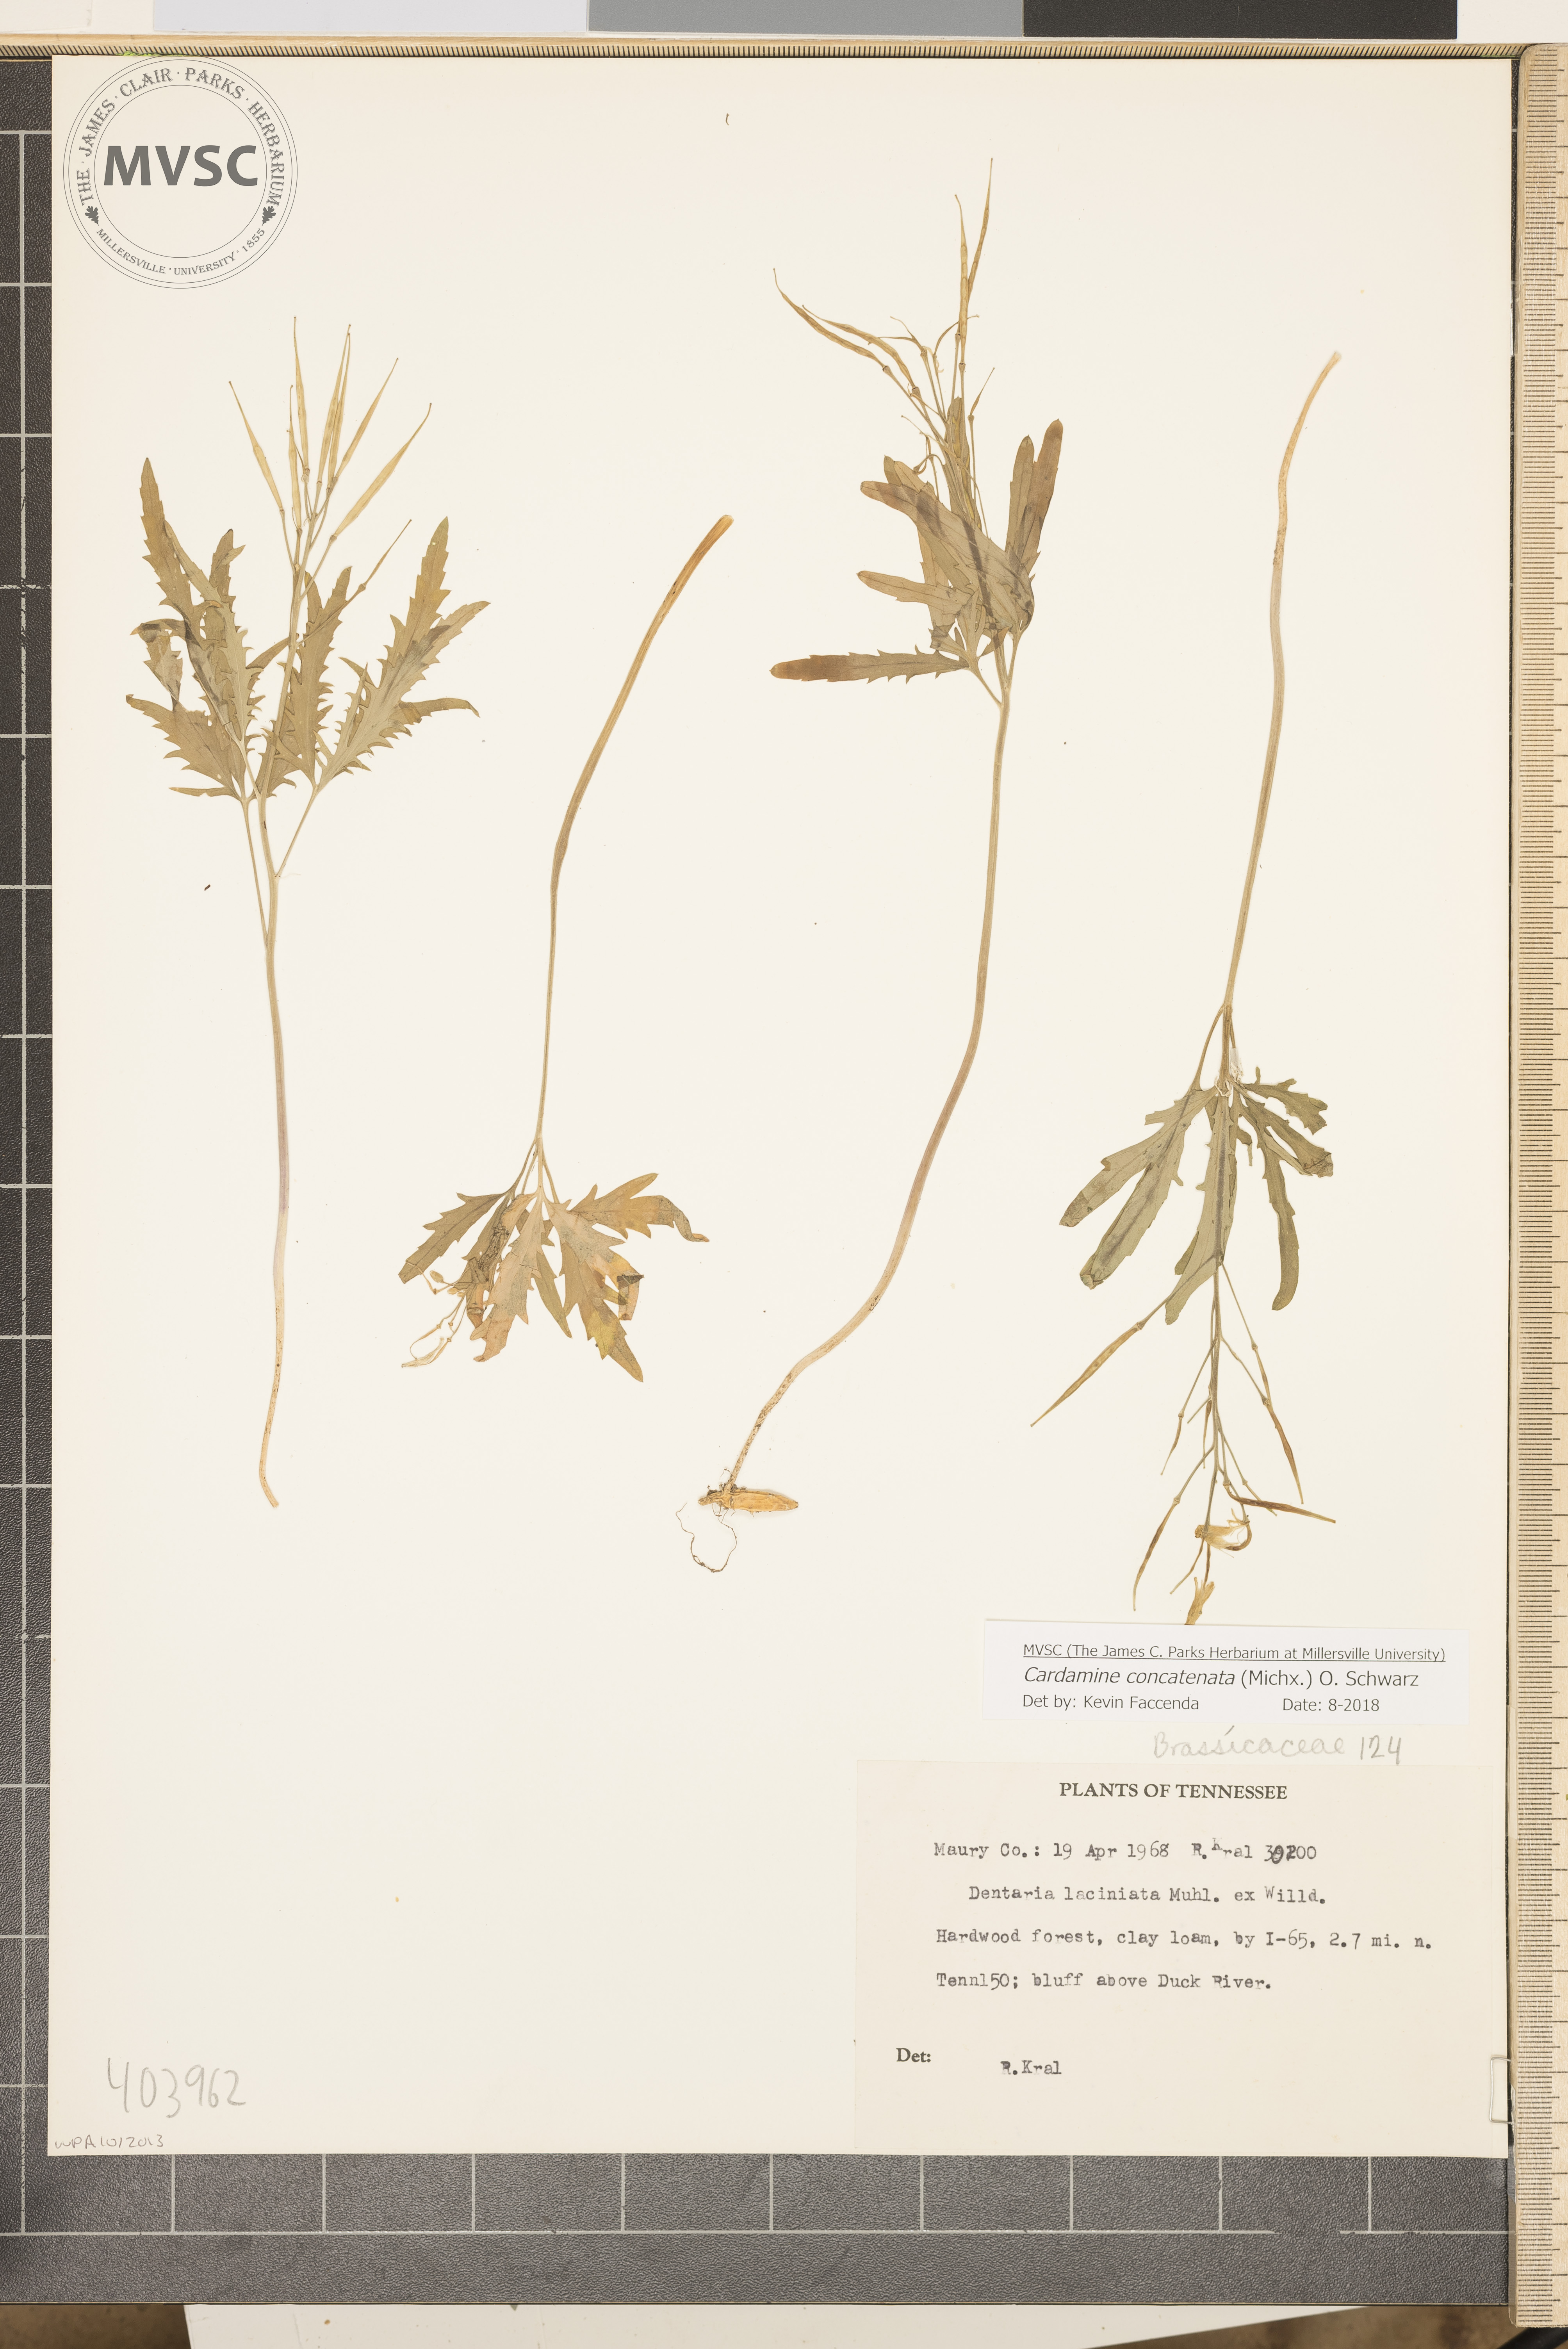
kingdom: Plantae
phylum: Tracheophyta
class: Magnoliopsida
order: Brassicales
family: Brassicaceae
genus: Cardamine
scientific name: Cardamine concatenata
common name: Cut-leaf toothcup
